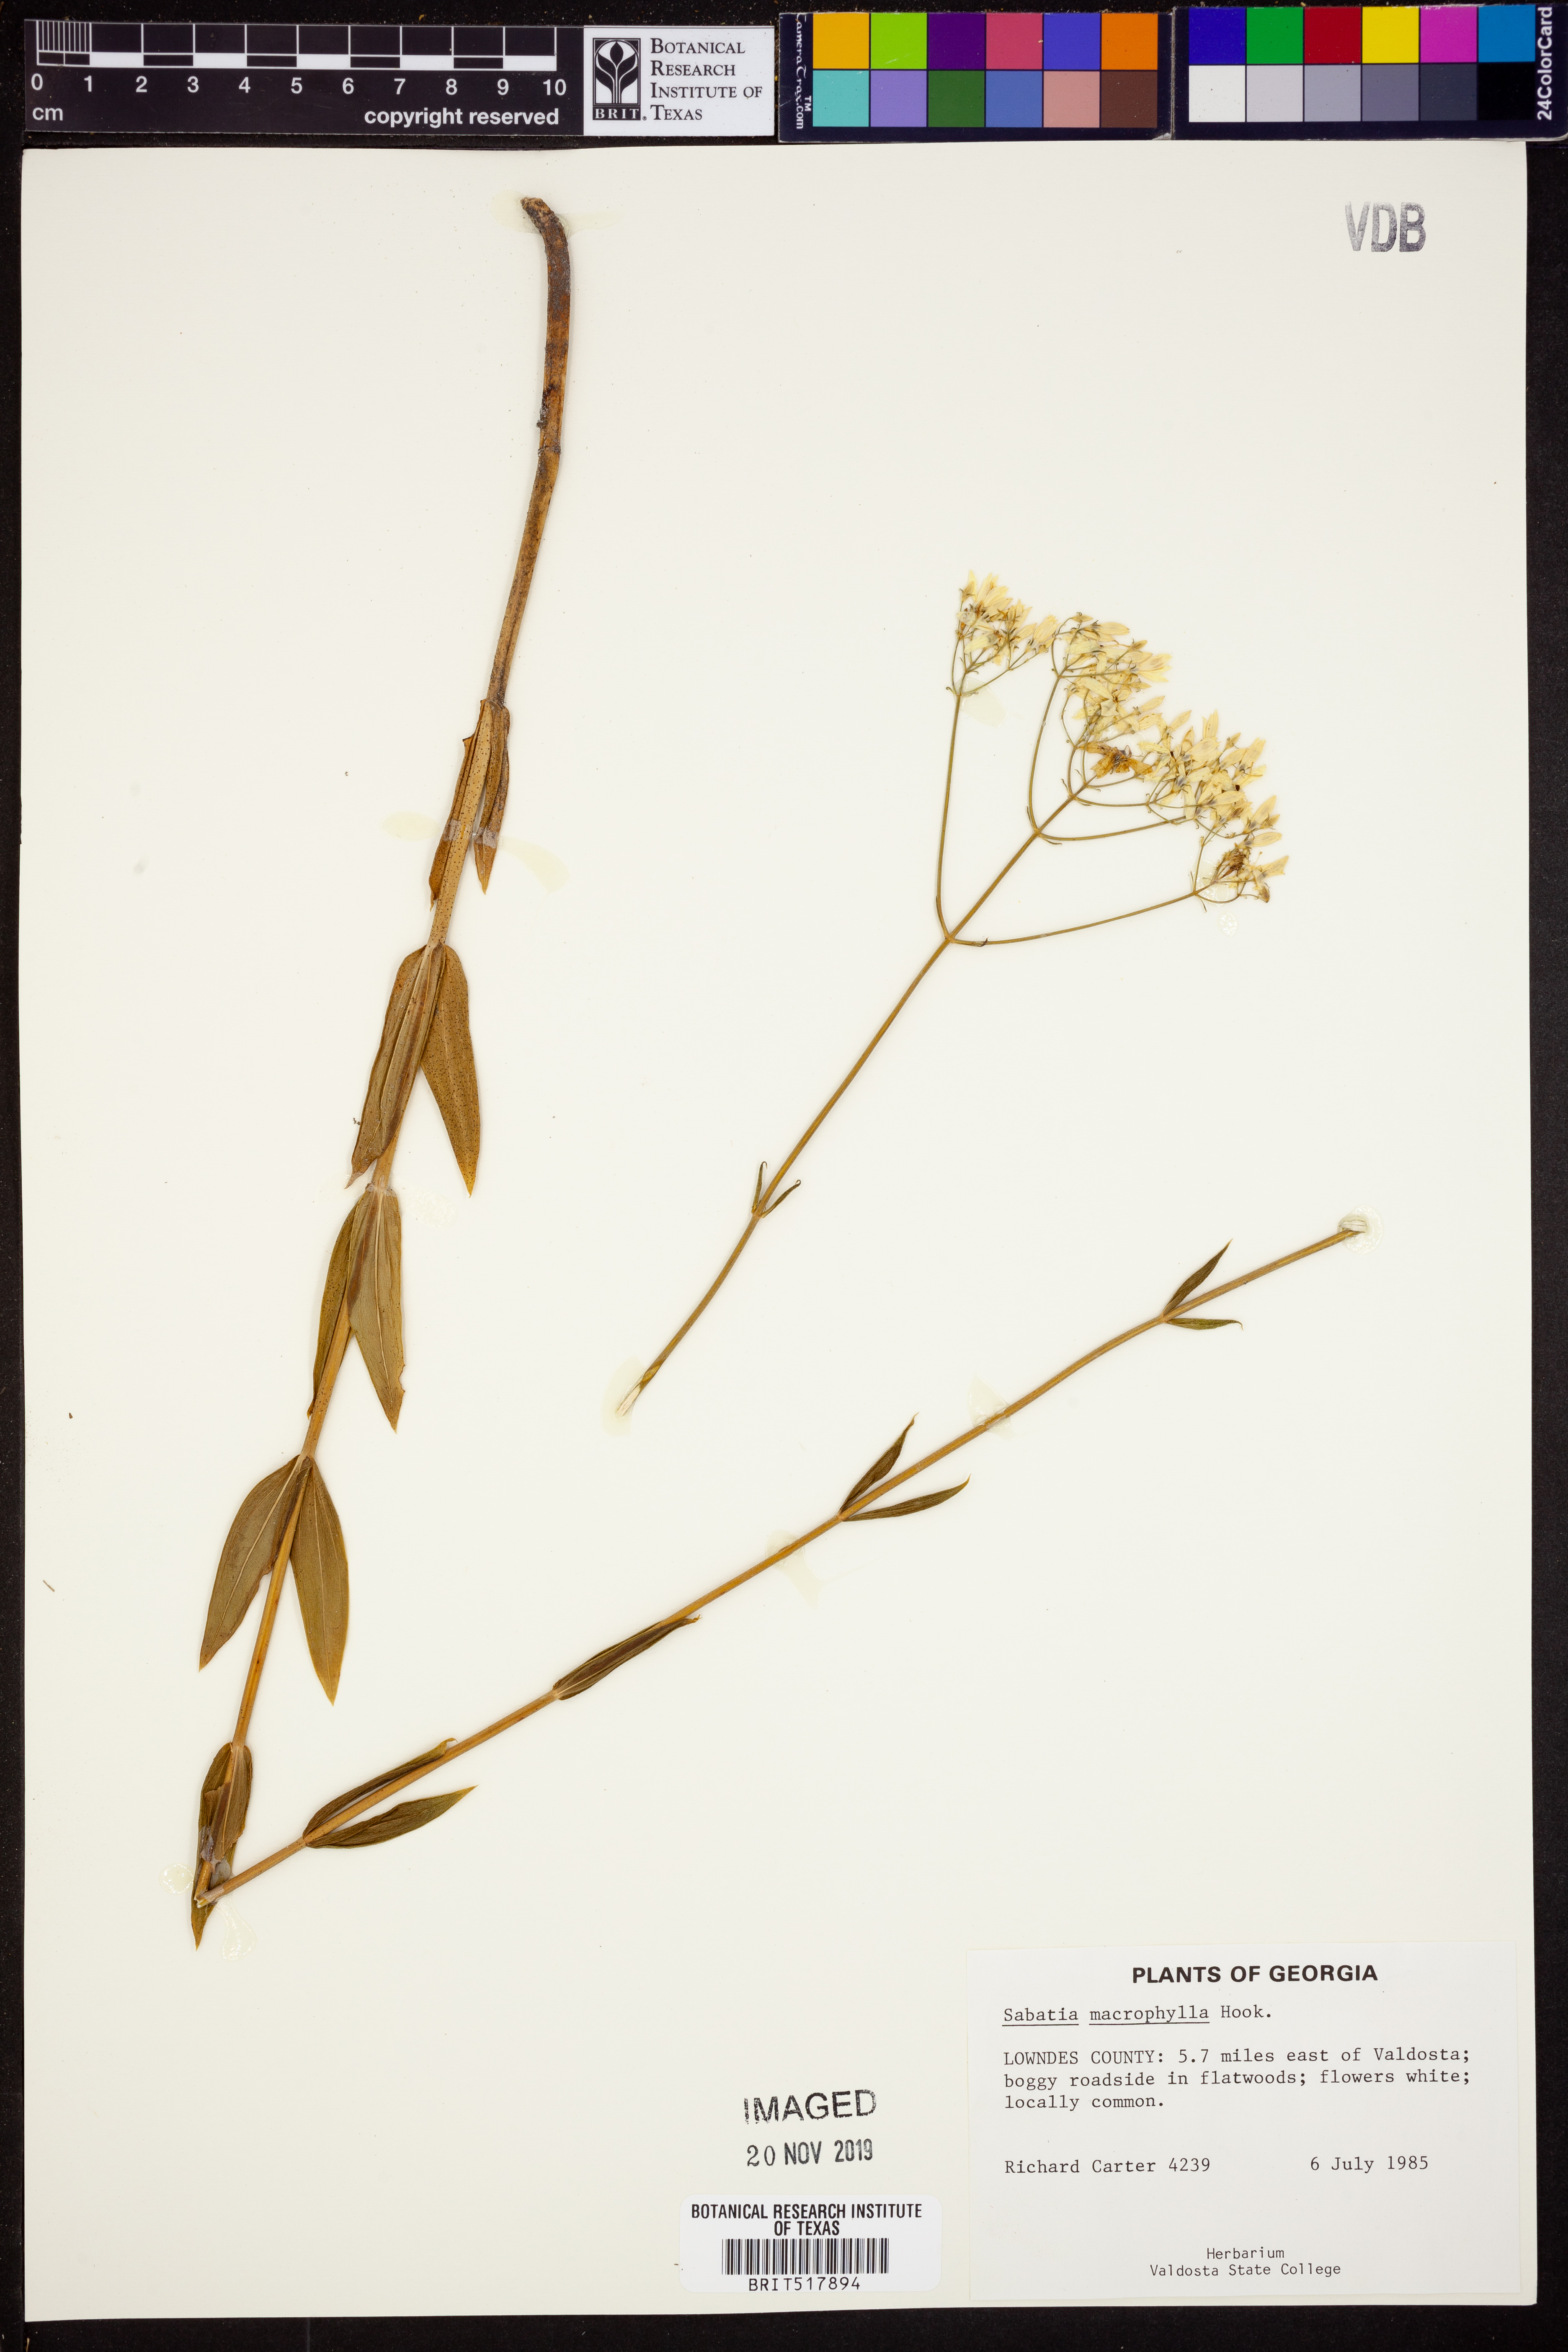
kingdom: Plantae
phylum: Tracheophyta
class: Magnoliopsida
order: Gentianales
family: Gentianaceae
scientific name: Gentianaceae
